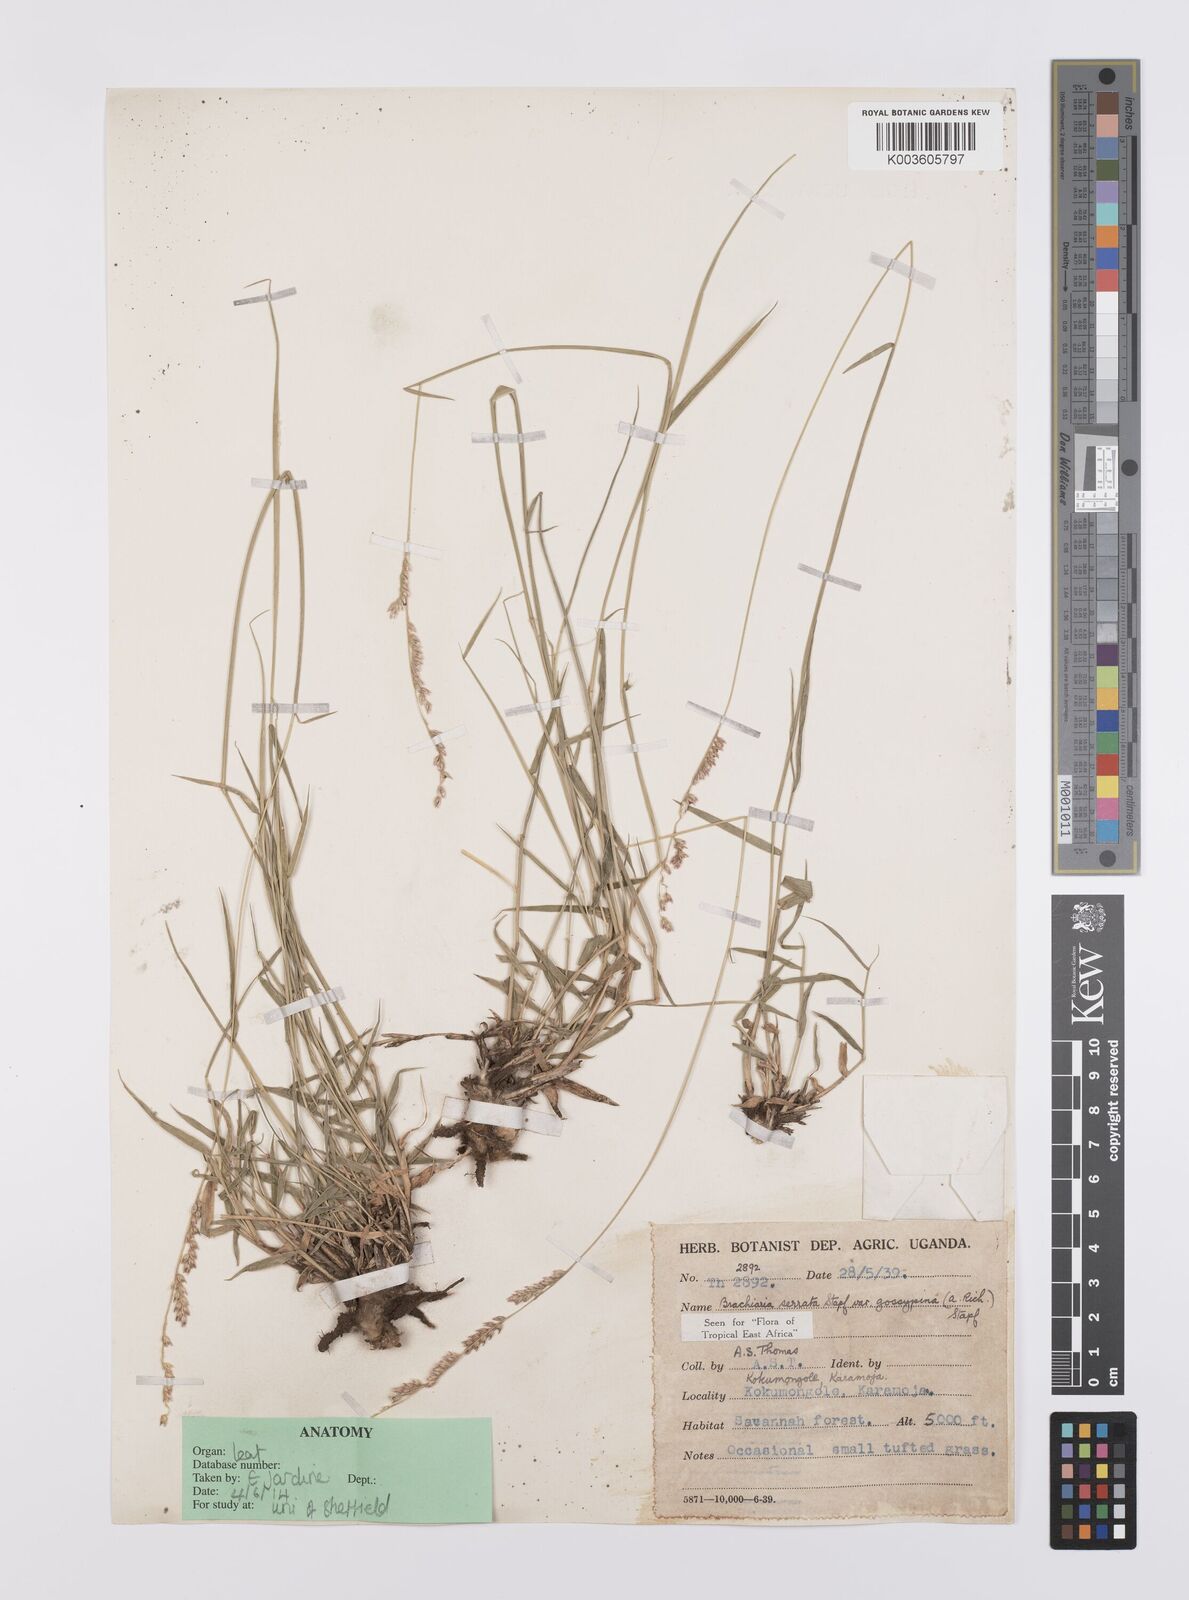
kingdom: Plantae
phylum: Tracheophyta
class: Liliopsida
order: Poales
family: Poaceae
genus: Urochloa
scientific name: Urochloa serrata
